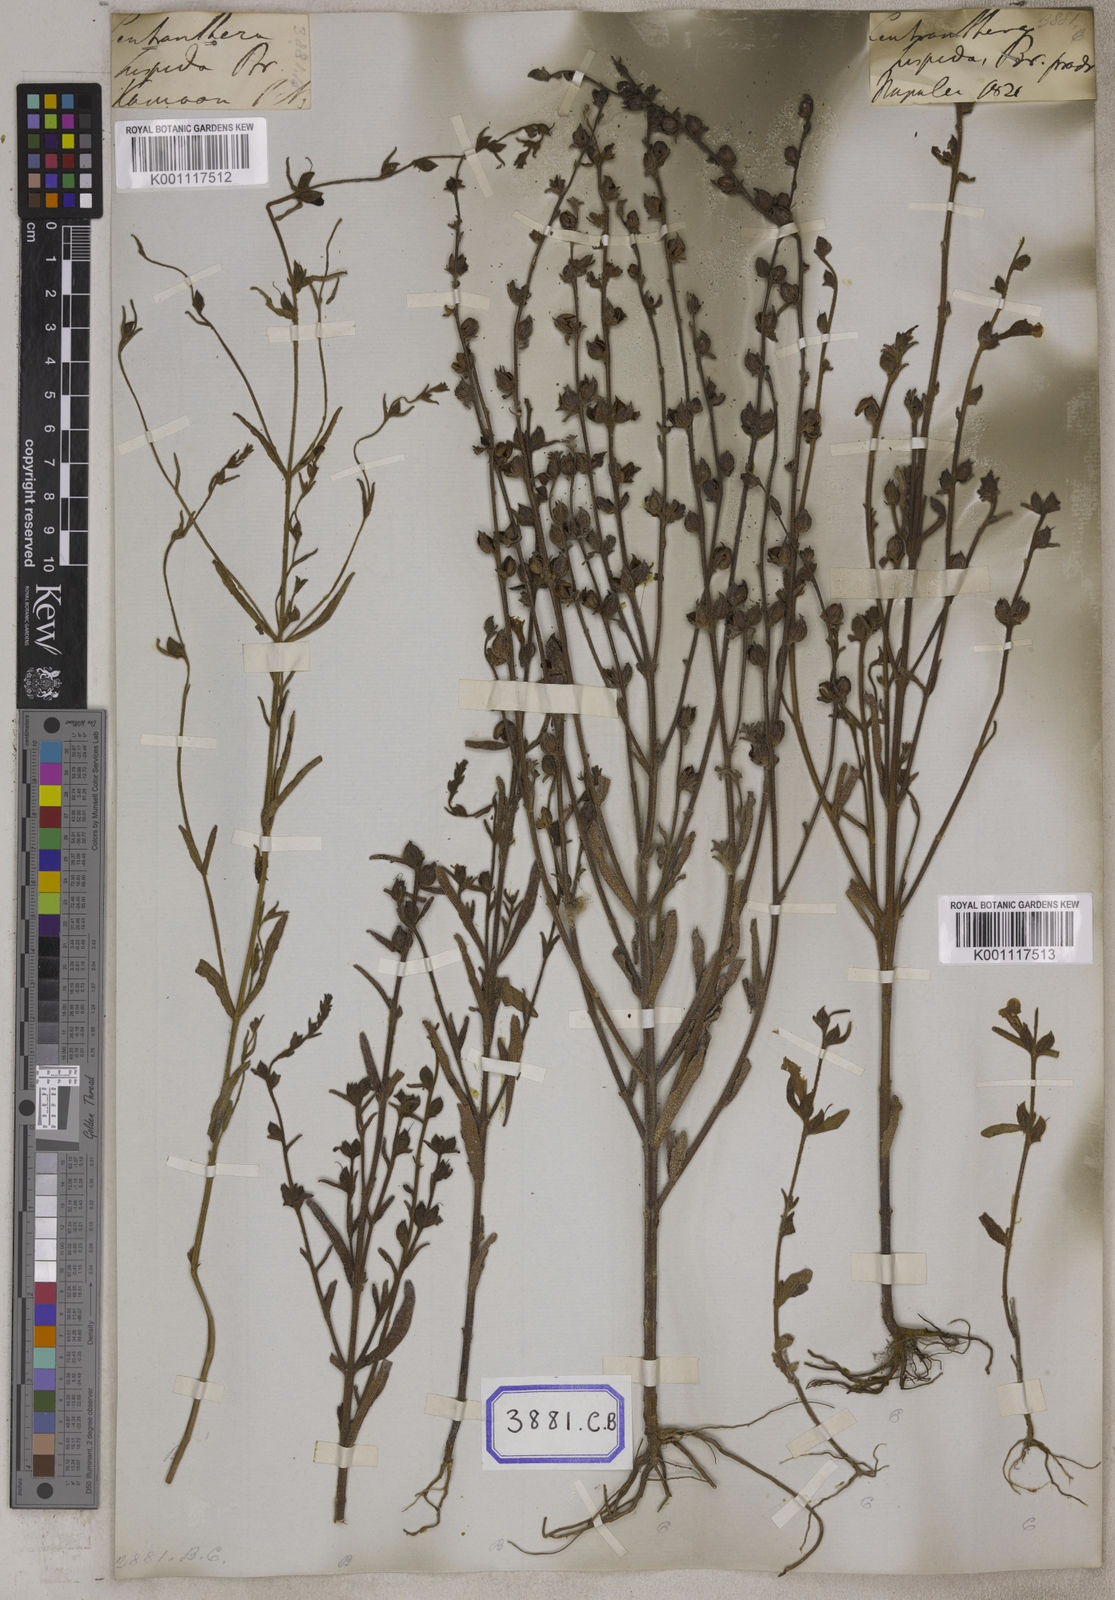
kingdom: Plantae
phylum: Tracheophyta
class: Magnoliopsida
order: Lamiales
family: Orobanchaceae
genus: Centranthera
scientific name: Centranthera hispida
